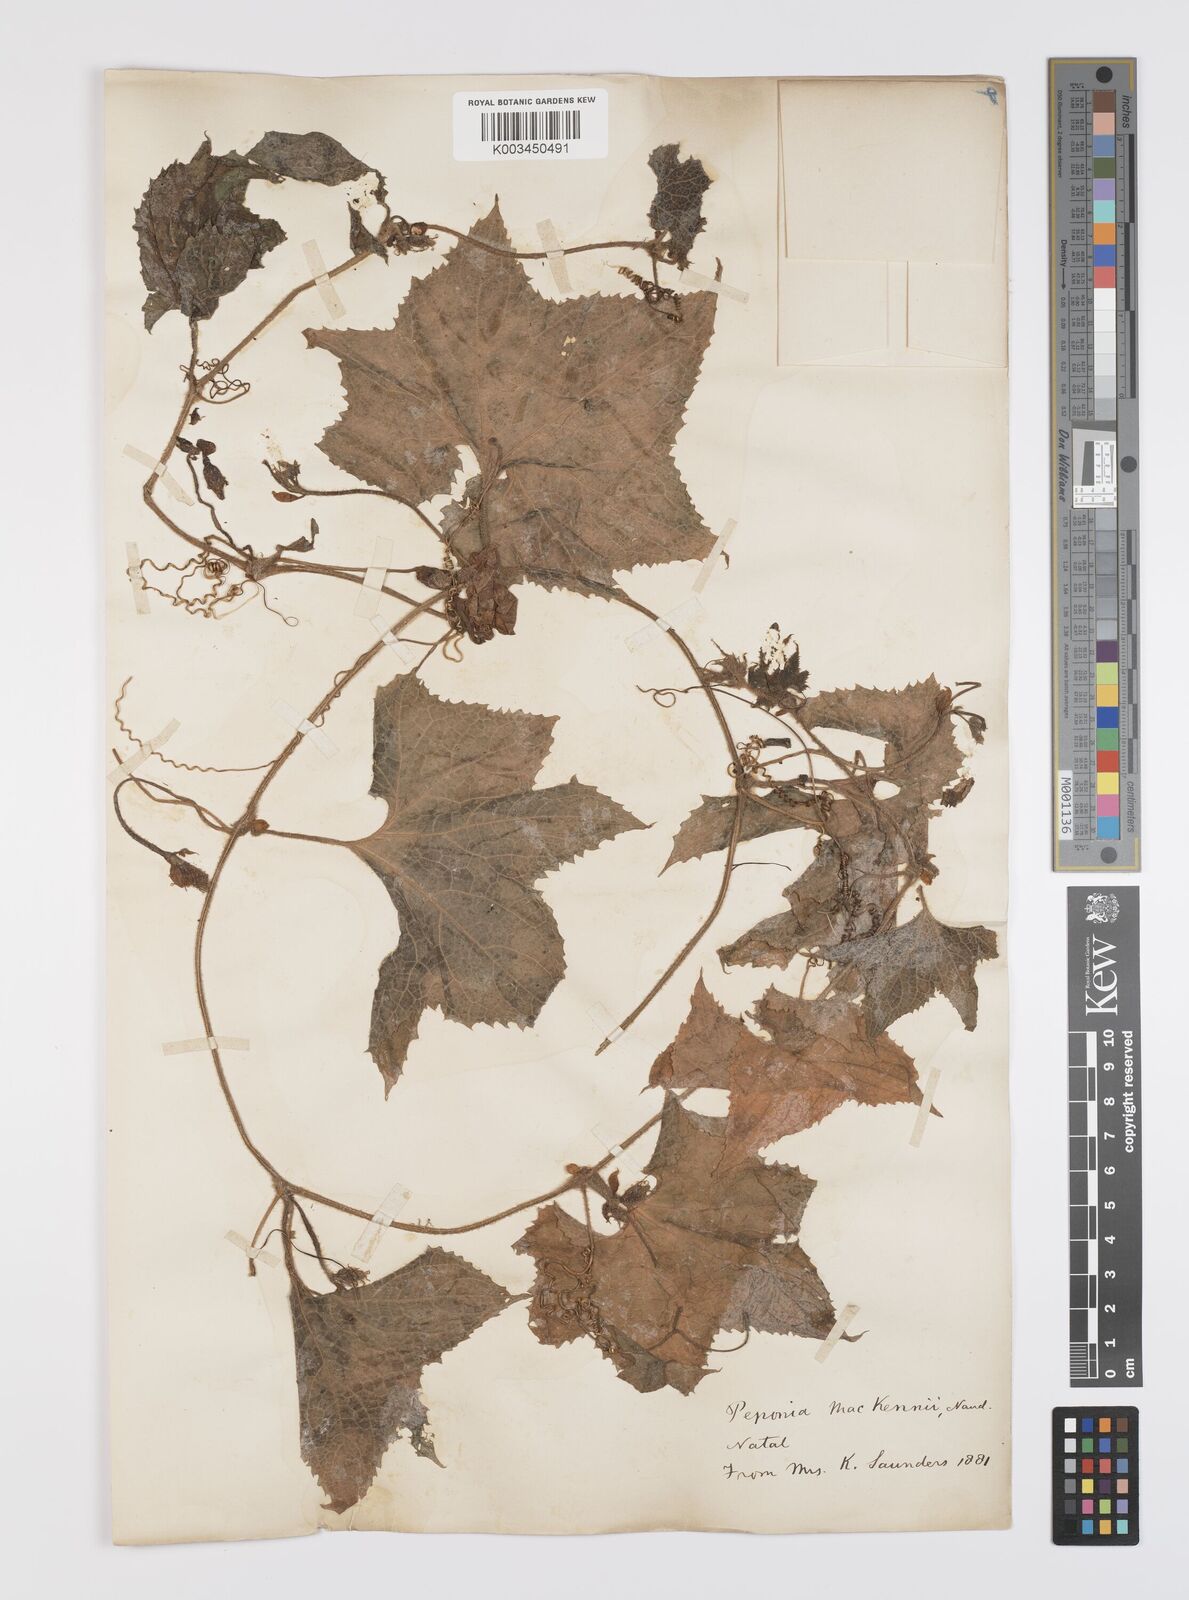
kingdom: Plantae
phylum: Tracheophyta
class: Magnoliopsida
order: Cucurbitales
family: Cucurbitaceae
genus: Peponium
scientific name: Peponium mackenii
